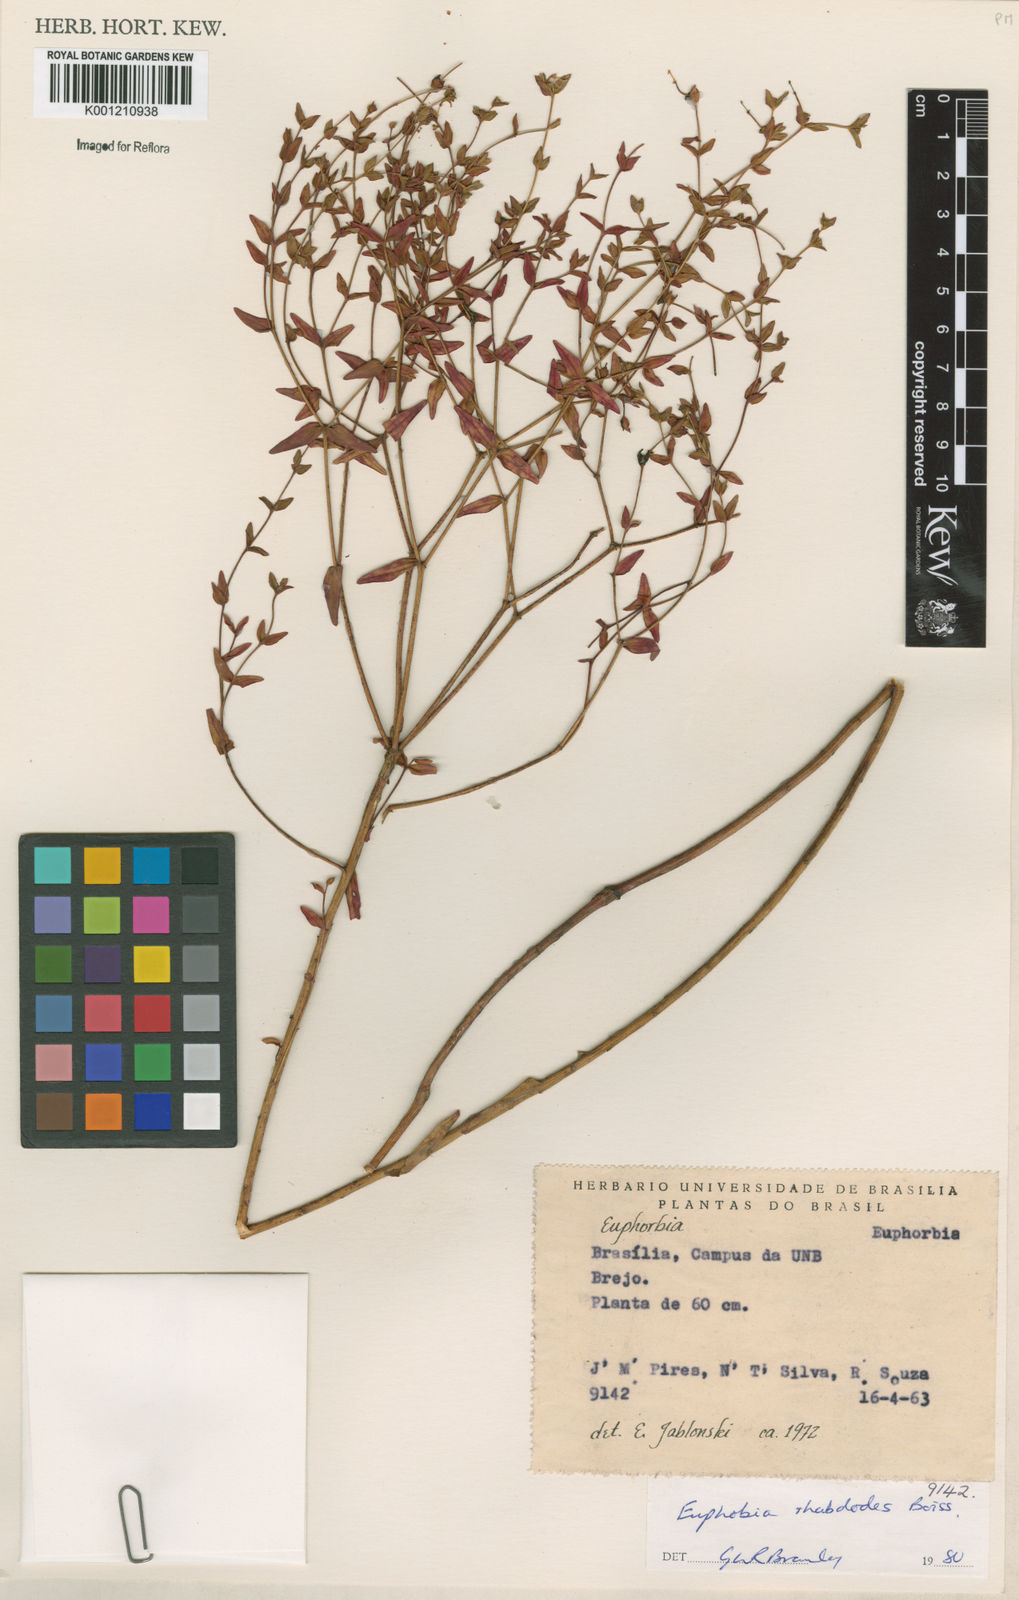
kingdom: Plantae
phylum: Tracheophyta
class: Magnoliopsida
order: Malpighiales
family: Euphorbiaceae
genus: Euphorbia
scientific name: Euphorbia rhabdodes
